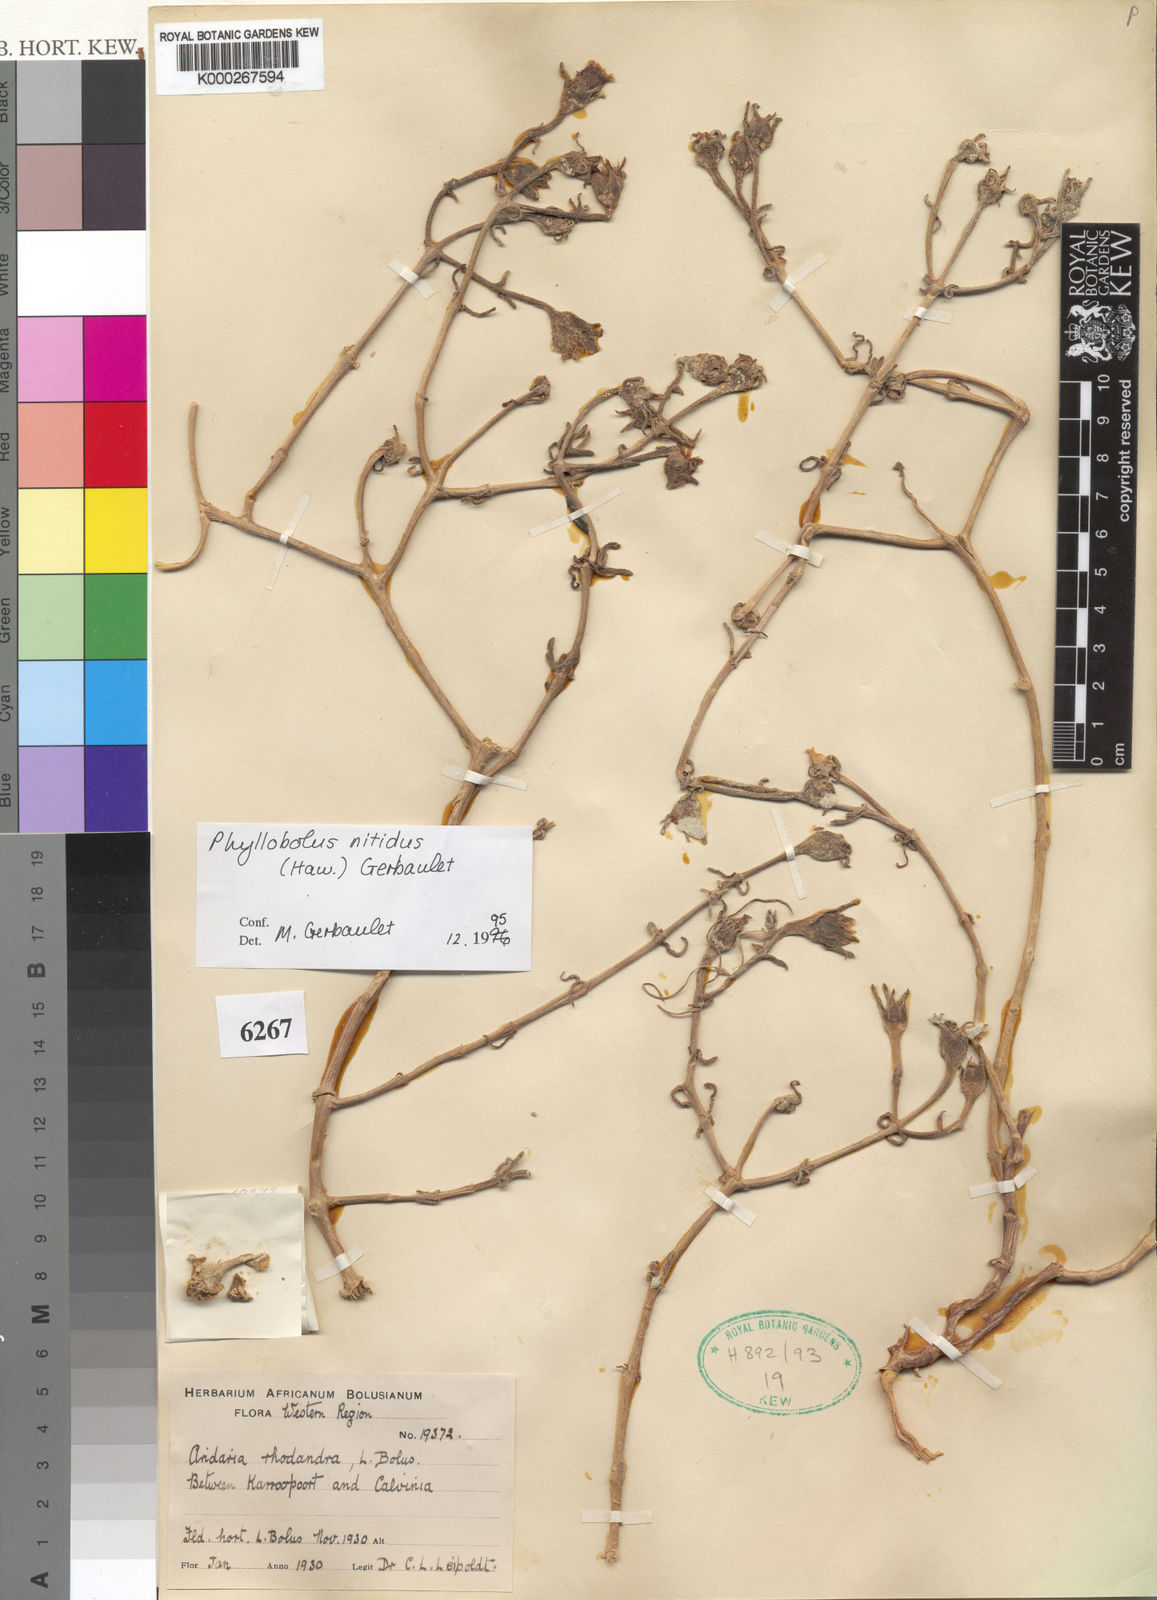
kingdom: Plantae
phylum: Tracheophyta
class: Magnoliopsida
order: Caryophyllales
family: Aizoaceae
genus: Mesembryanthemum
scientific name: Mesembryanthemum nitidum
